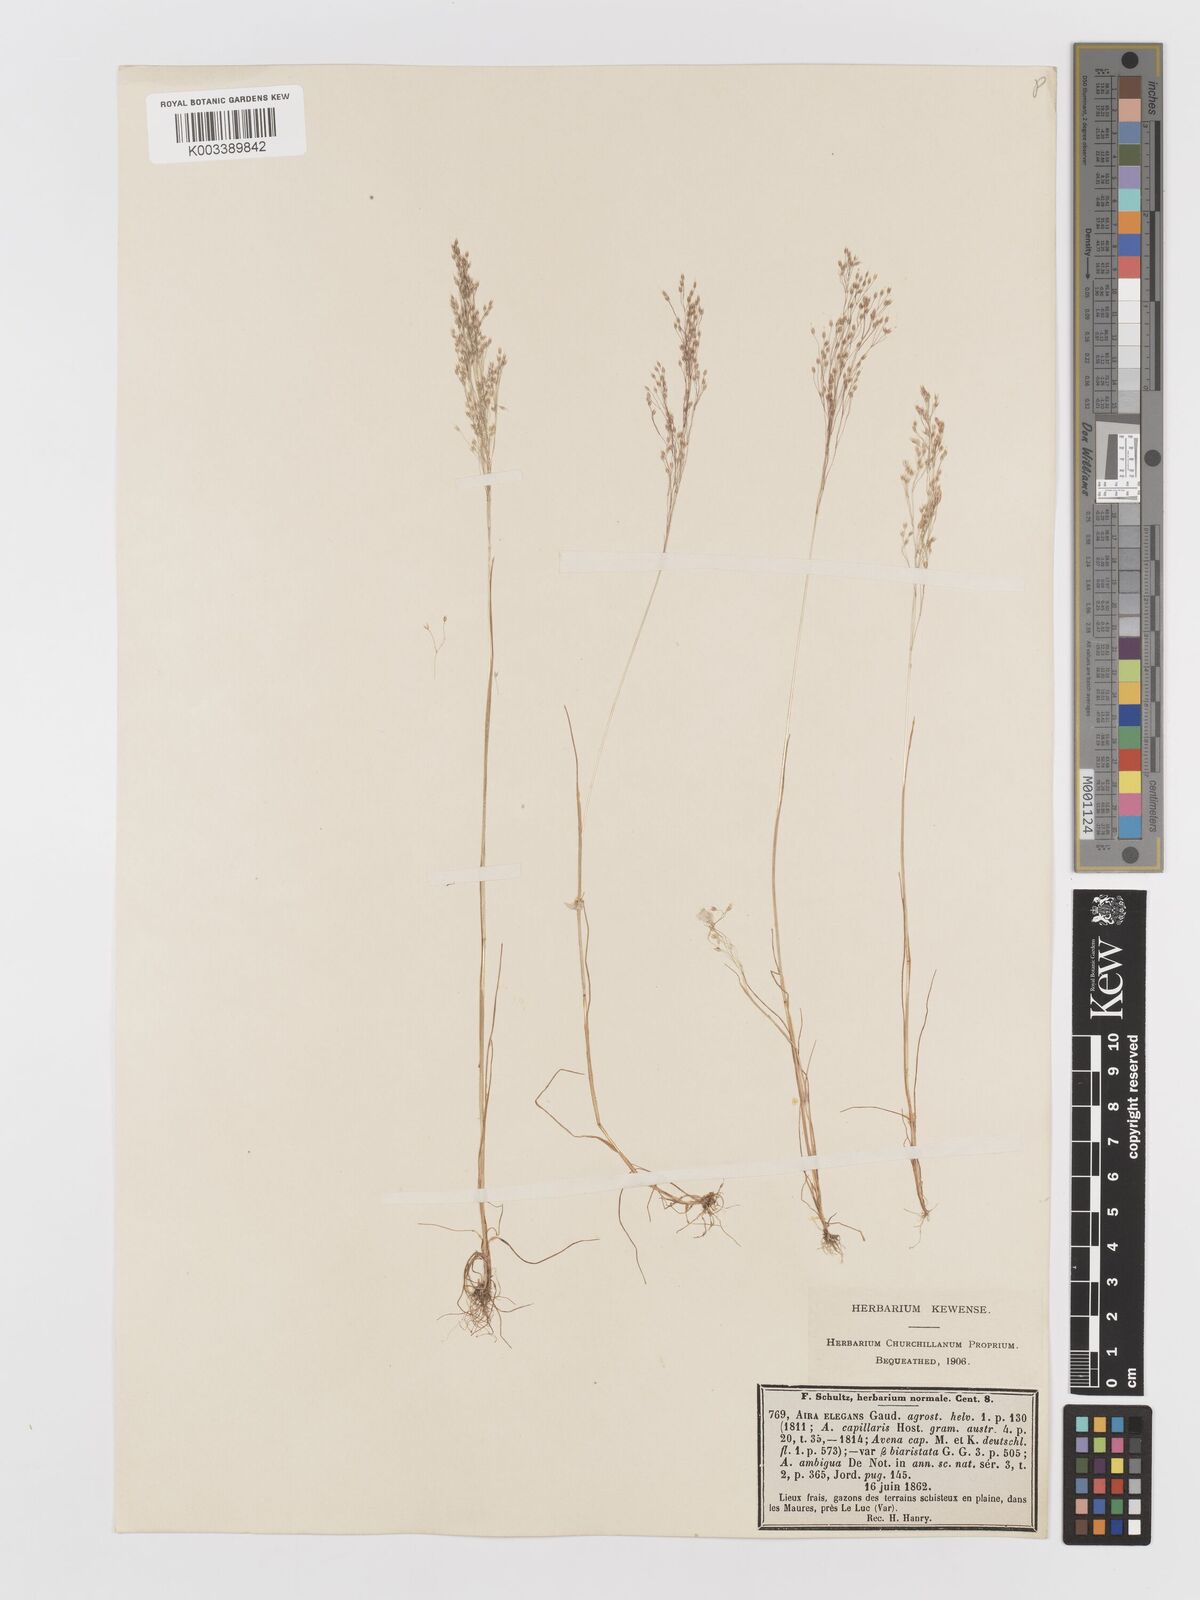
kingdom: Plantae
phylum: Tracheophyta
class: Liliopsida
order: Poales
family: Poaceae
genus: Aira
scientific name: Aira elegans
